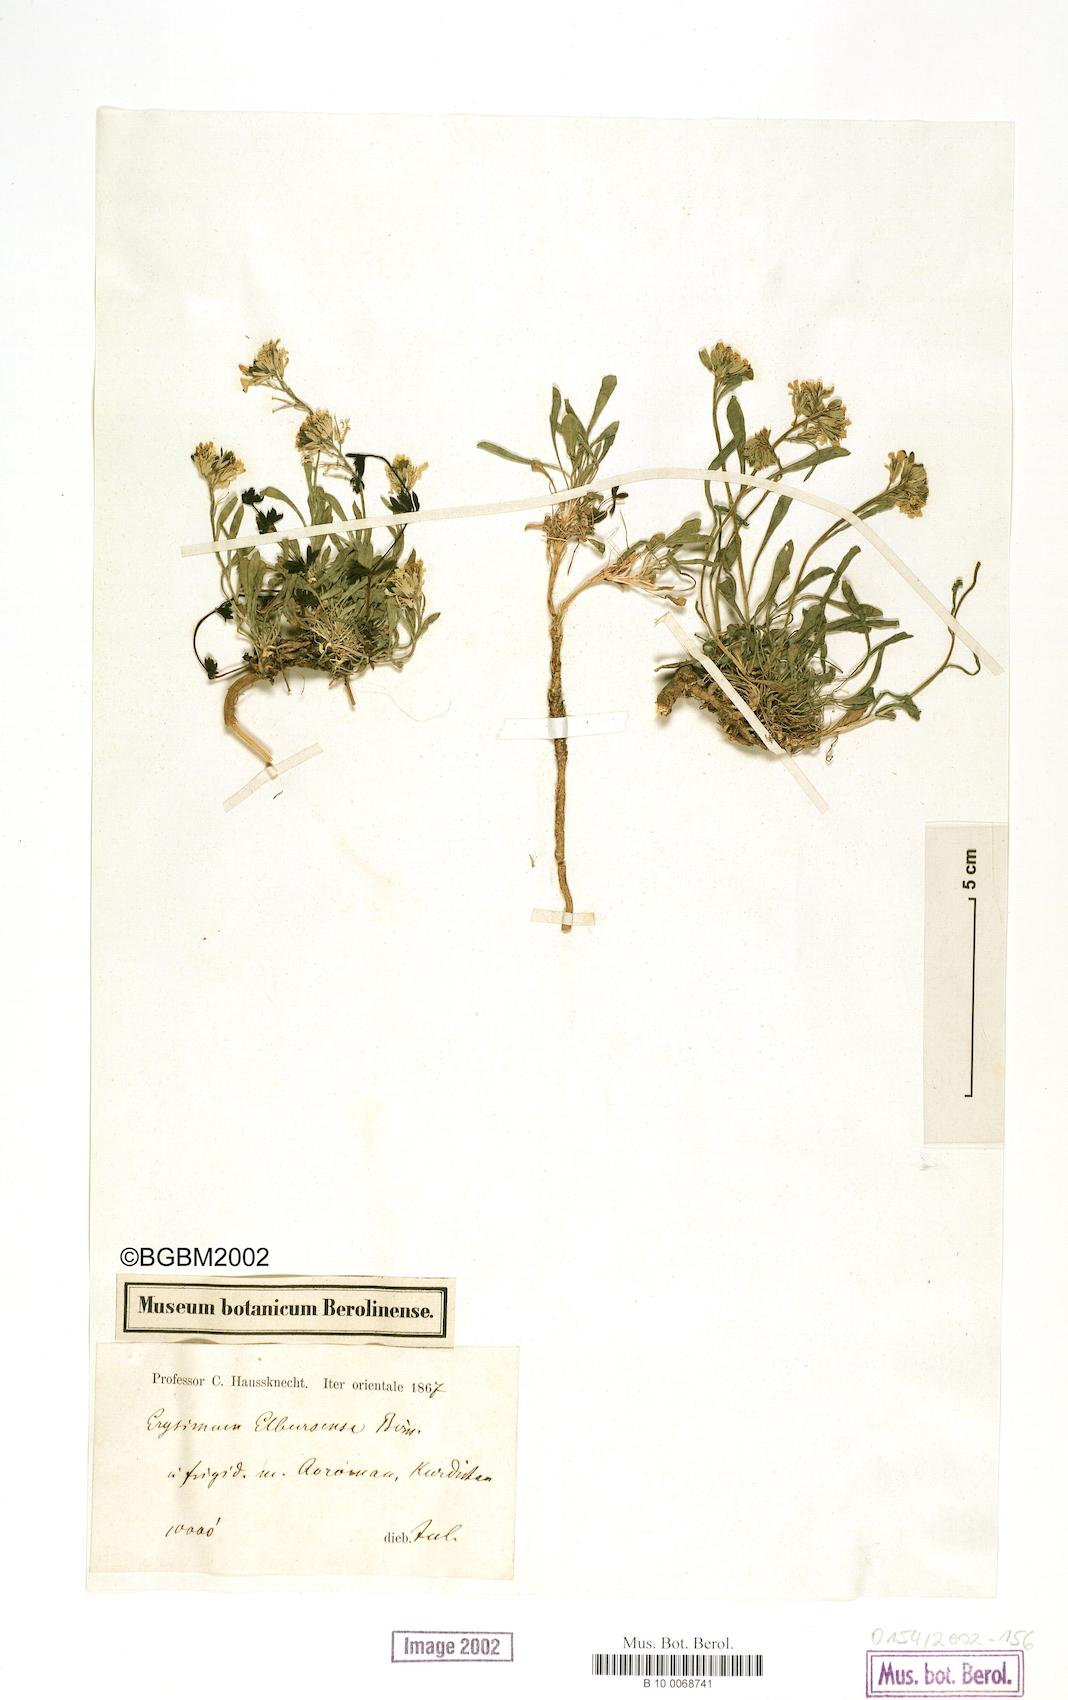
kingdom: Plantae
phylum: Tracheophyta
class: Magnoliopsida
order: Brassicales
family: Brassicaceae
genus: Erysimum
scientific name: Erysimum elbrusense
